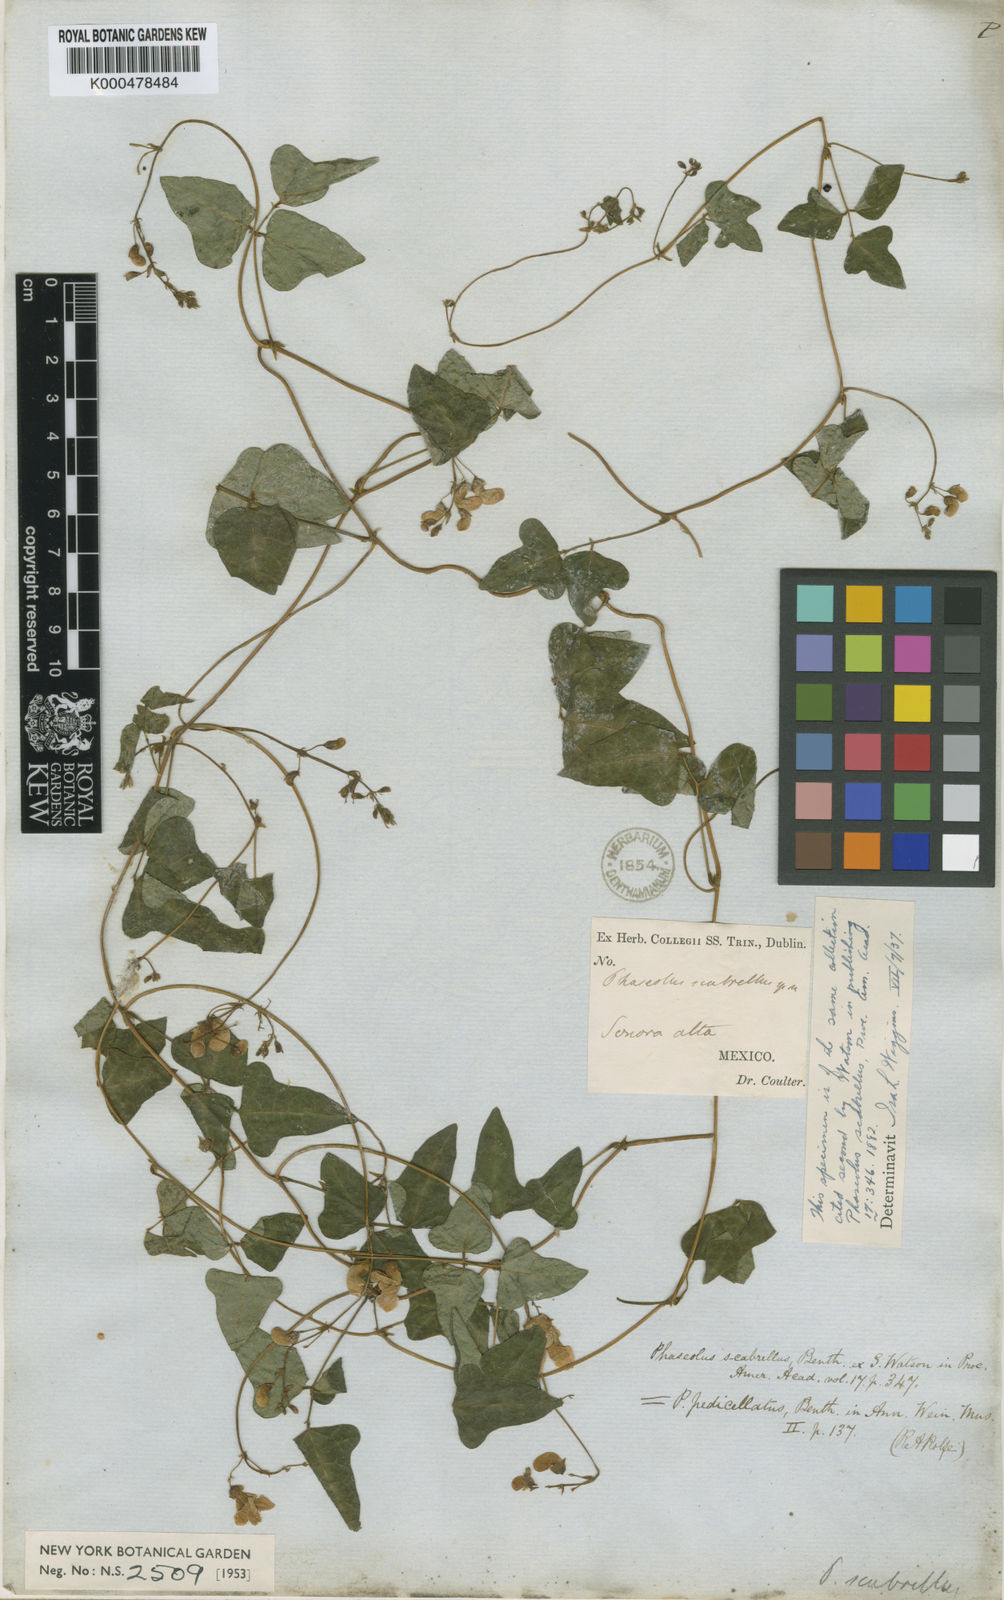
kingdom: Plantae
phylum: Tracheophyta
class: Magnoliopsida
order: Fabales
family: Fabaceae
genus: Phaseolus
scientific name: Phaseolus scabrellus
